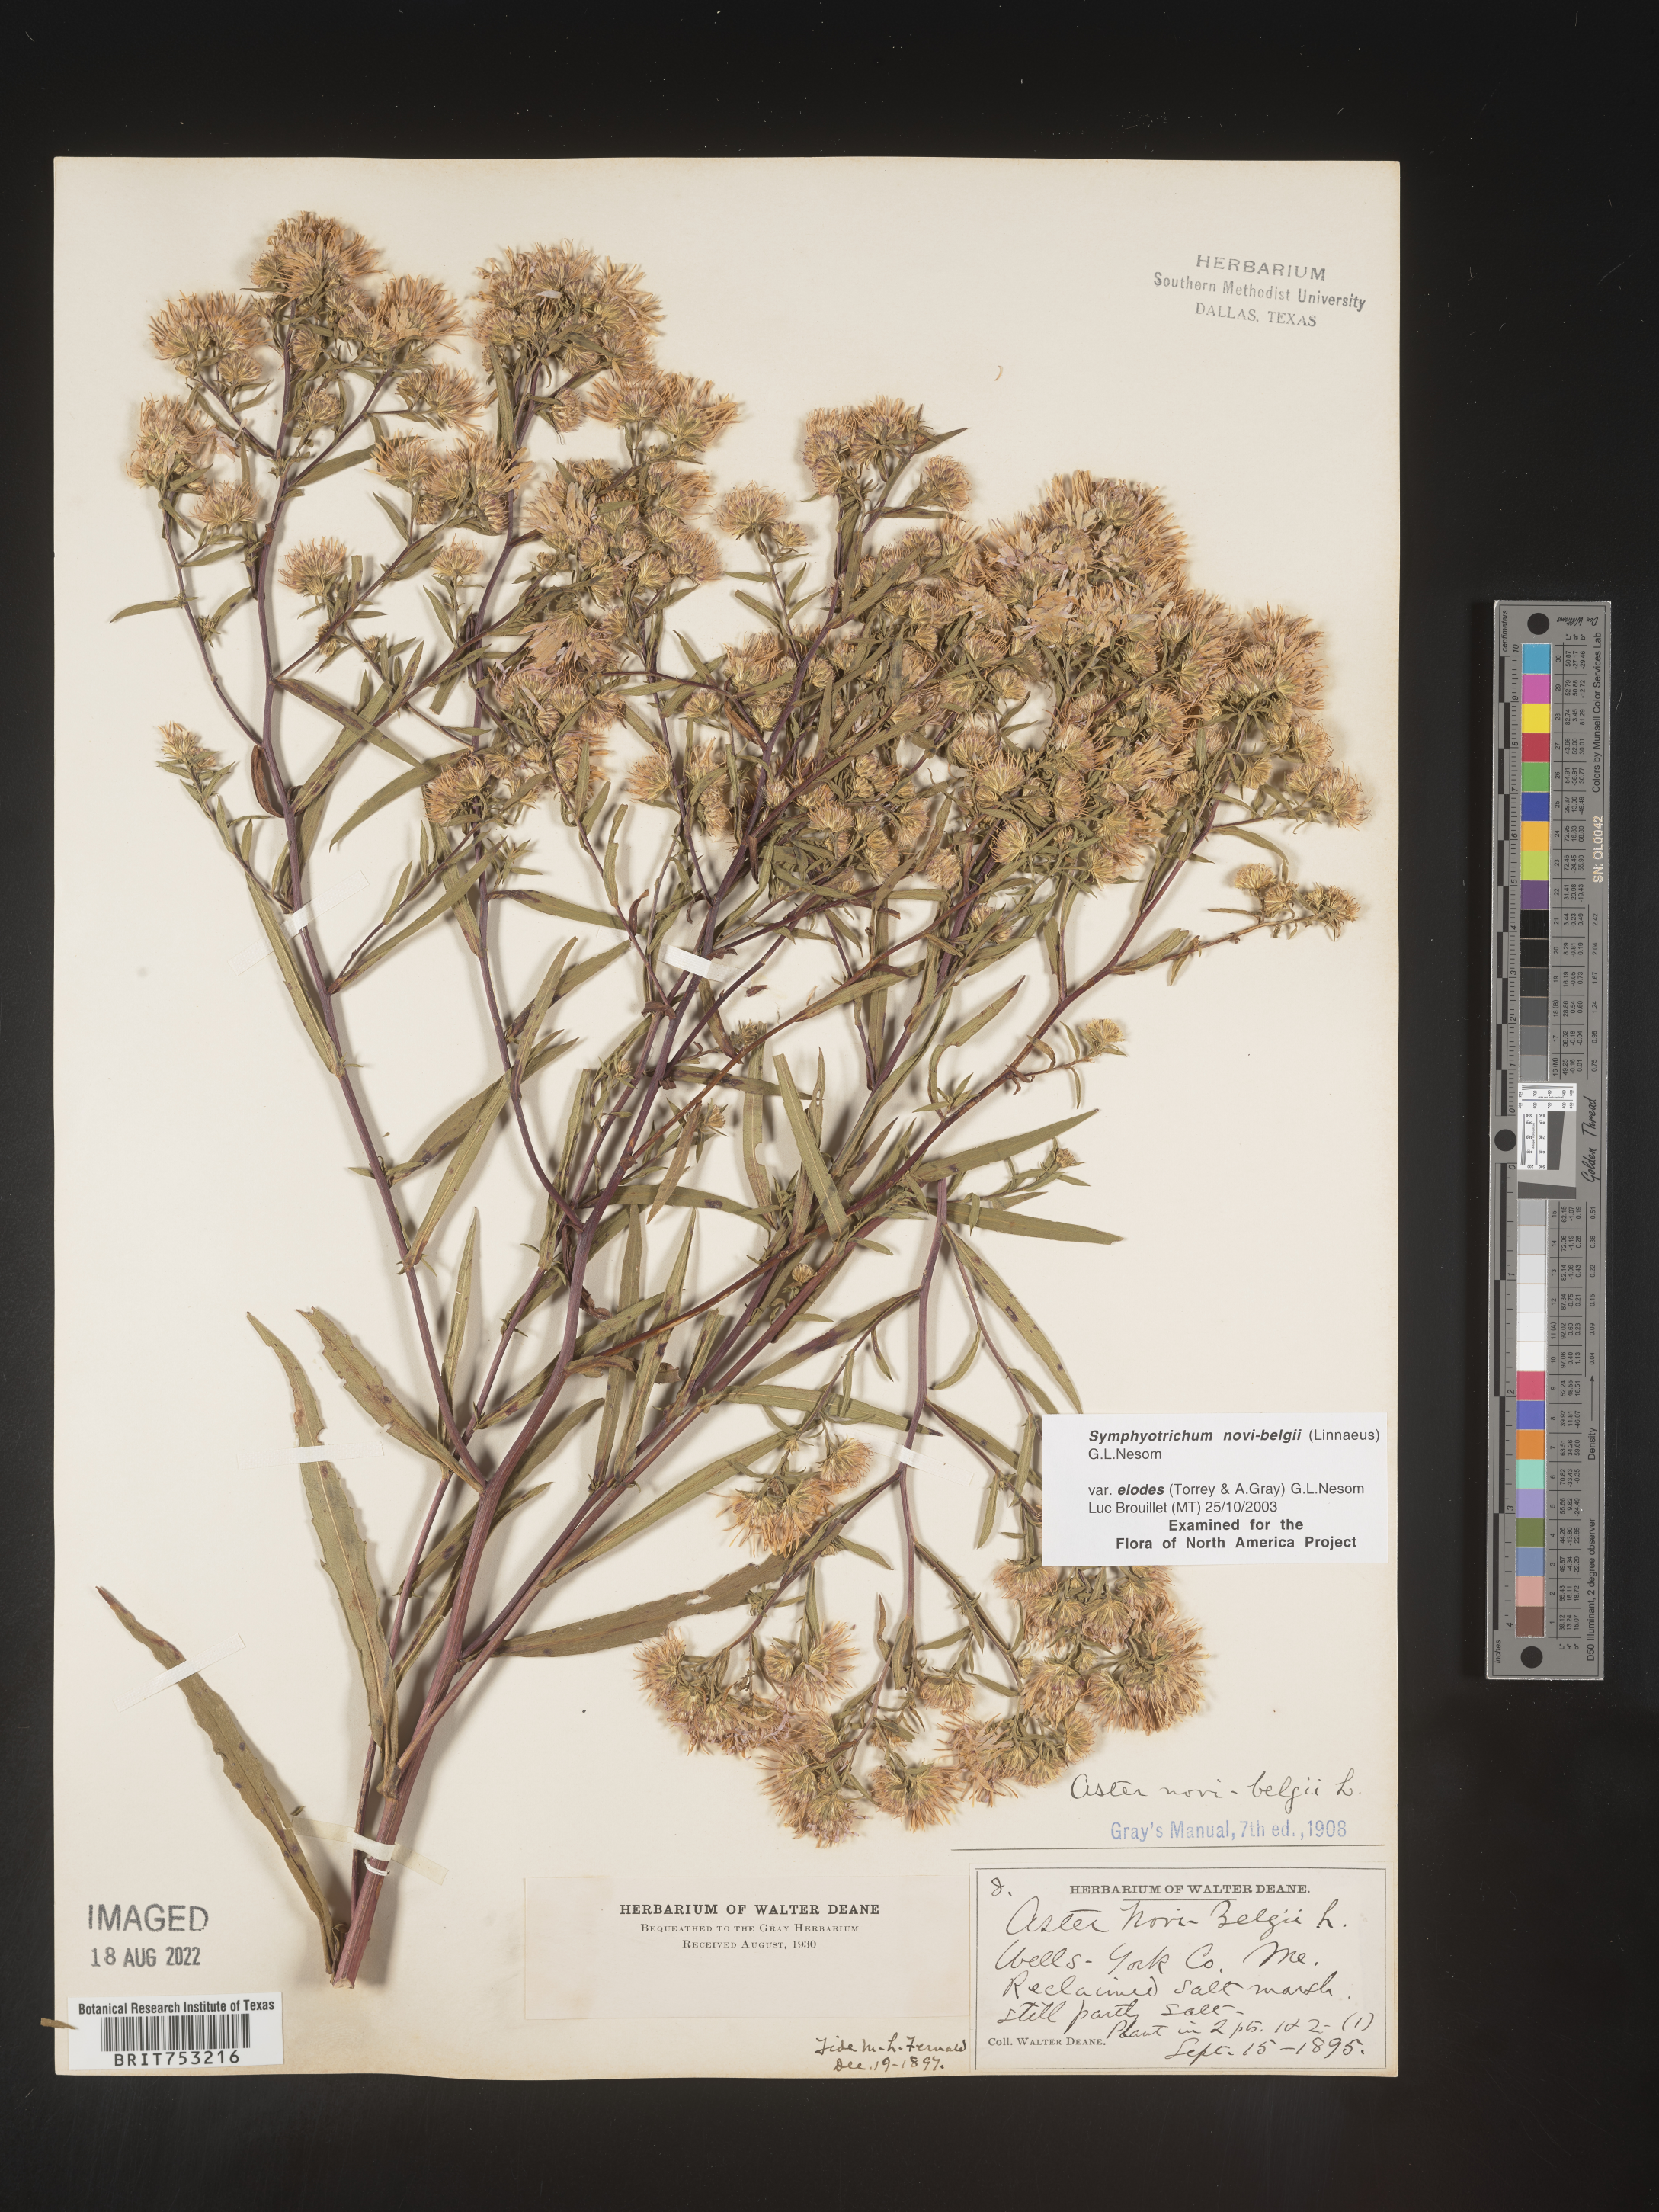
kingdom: Plantae
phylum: Tracheophyta
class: Magnoliopsida
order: Asterales
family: Asteraceae
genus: Symphyotrichum
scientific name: Symphyotrichum novi-belgii
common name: Michaelmas daisy
